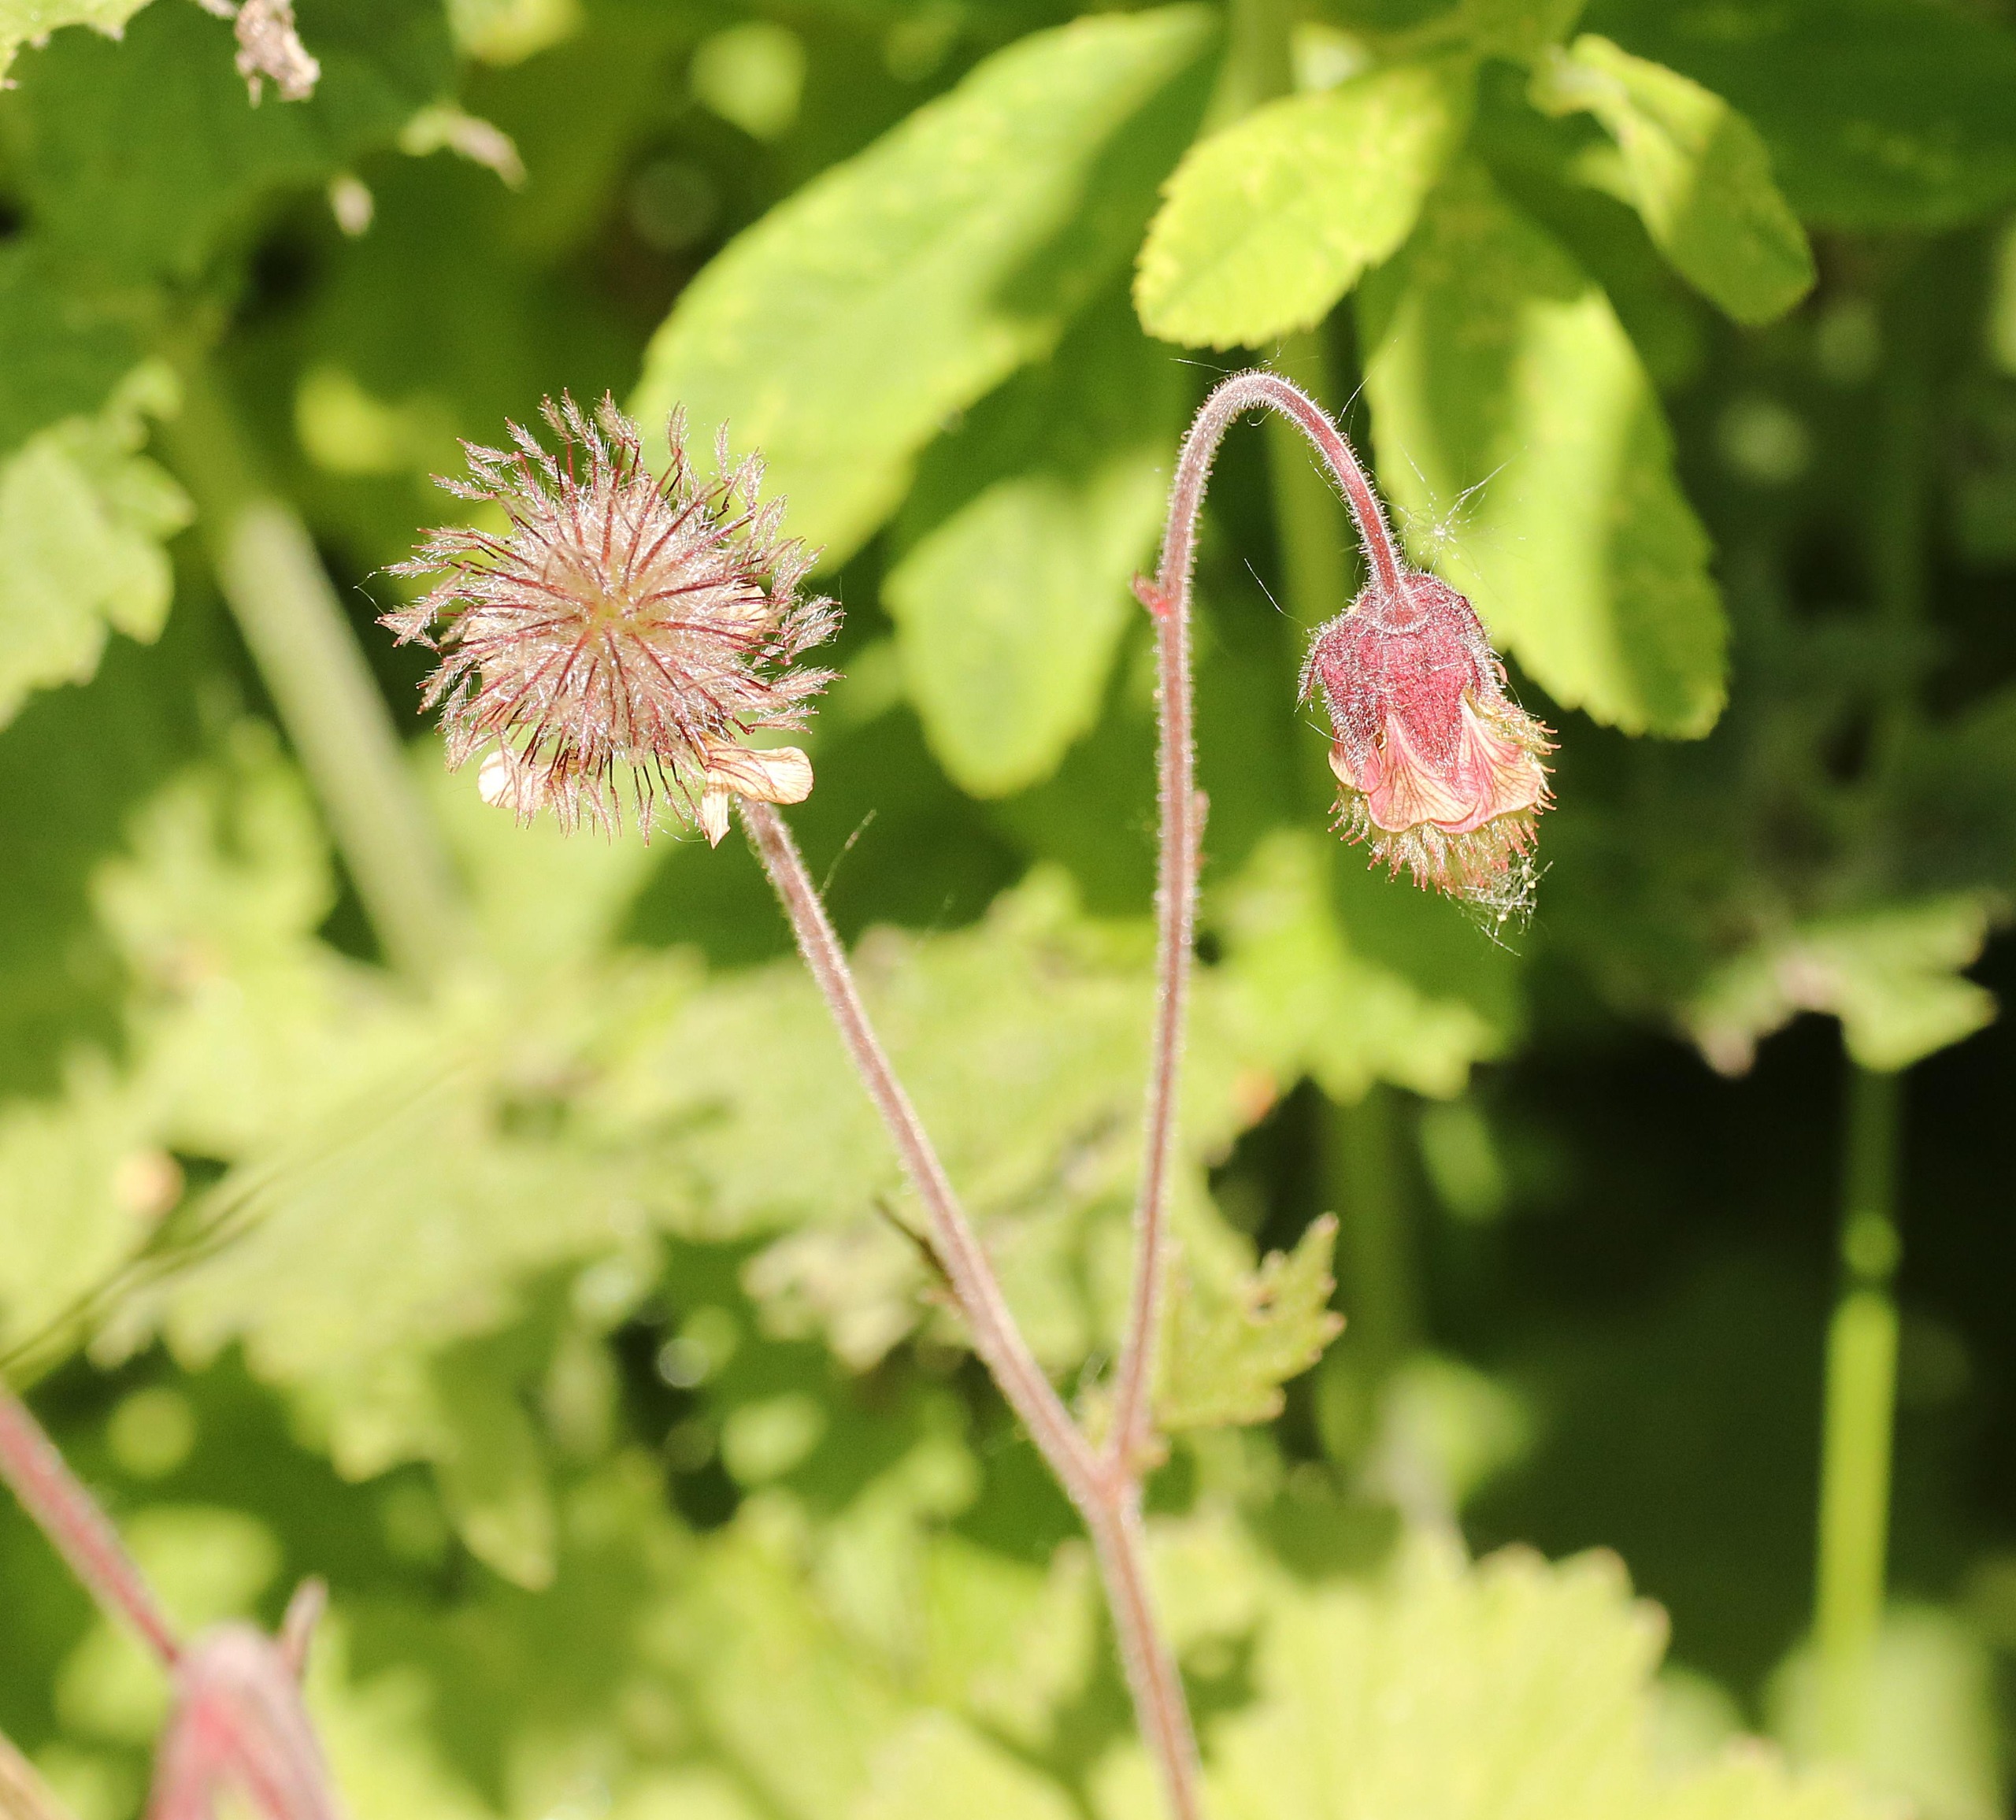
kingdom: Plantae
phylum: Tracheophyta
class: Magnoliopsida
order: Rosales
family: Rosaceae
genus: Geum
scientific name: Geum rivale
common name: Eng-nellikerod
